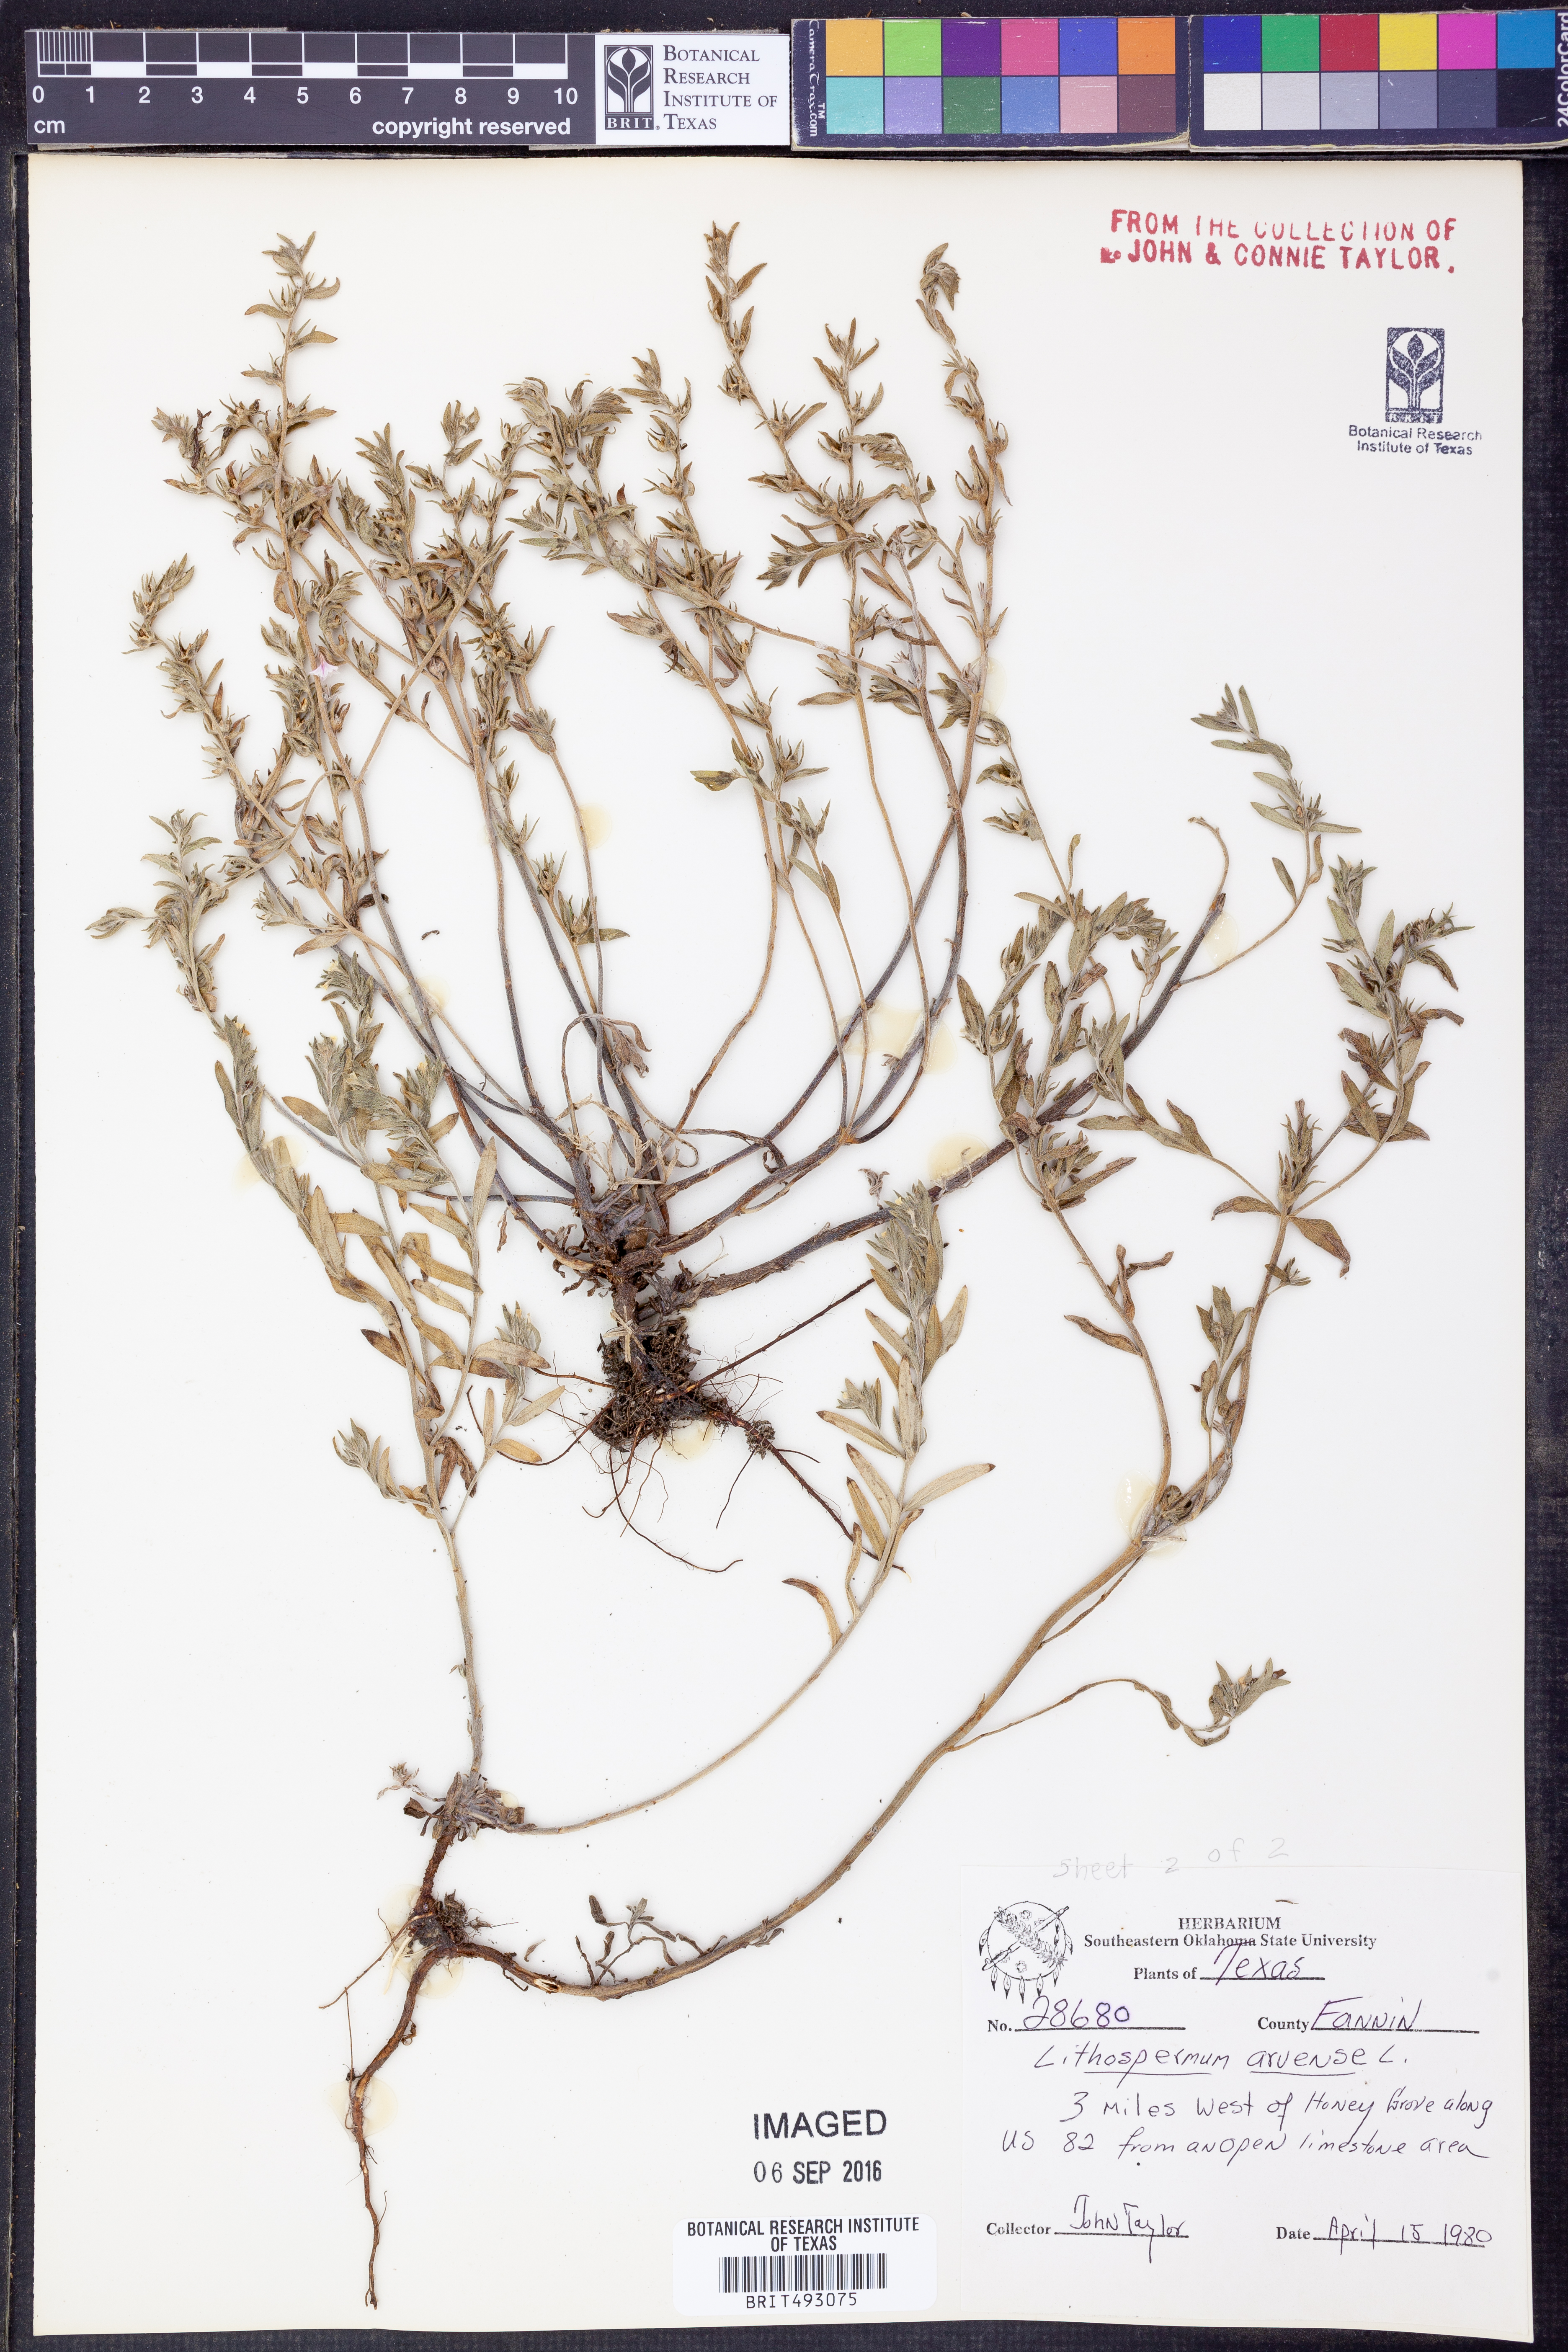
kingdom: Plantae
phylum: Tracheophyta
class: Magnoliopsida
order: Boraginales
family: Boraginaceae
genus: Lithospermum
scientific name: Lithospermum erythrorhizon
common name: Purple gromwell
